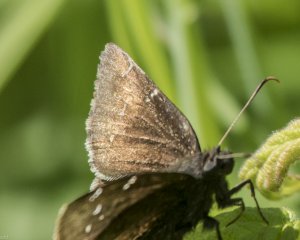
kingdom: Animalia
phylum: Arthropoda
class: Insecta
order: Lepidoptera
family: Hesperiidae
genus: Autochton
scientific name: Autochton
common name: Northern Cloudywing
